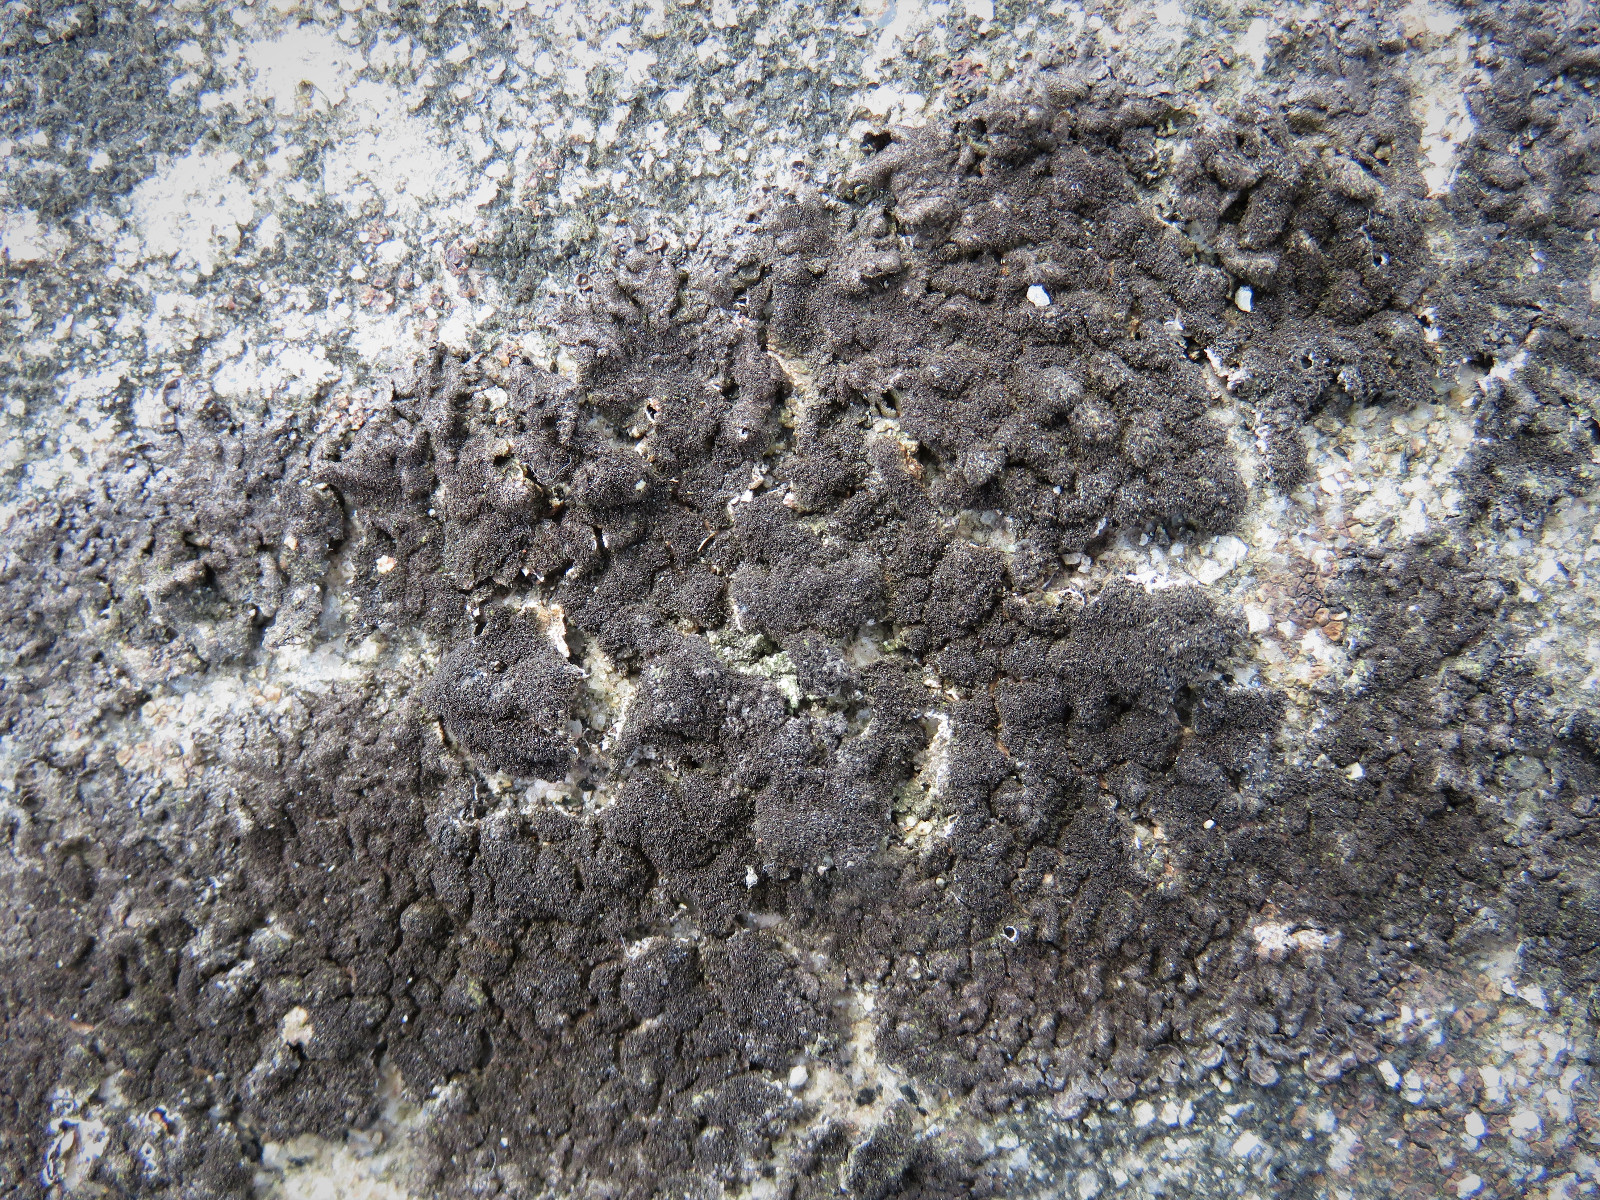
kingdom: Fungi
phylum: Ascomycota
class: Lecanoromycetes
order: Lecanorales
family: Parmeliaceae
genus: Melanelixia
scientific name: Melanelixia fuliginosa
